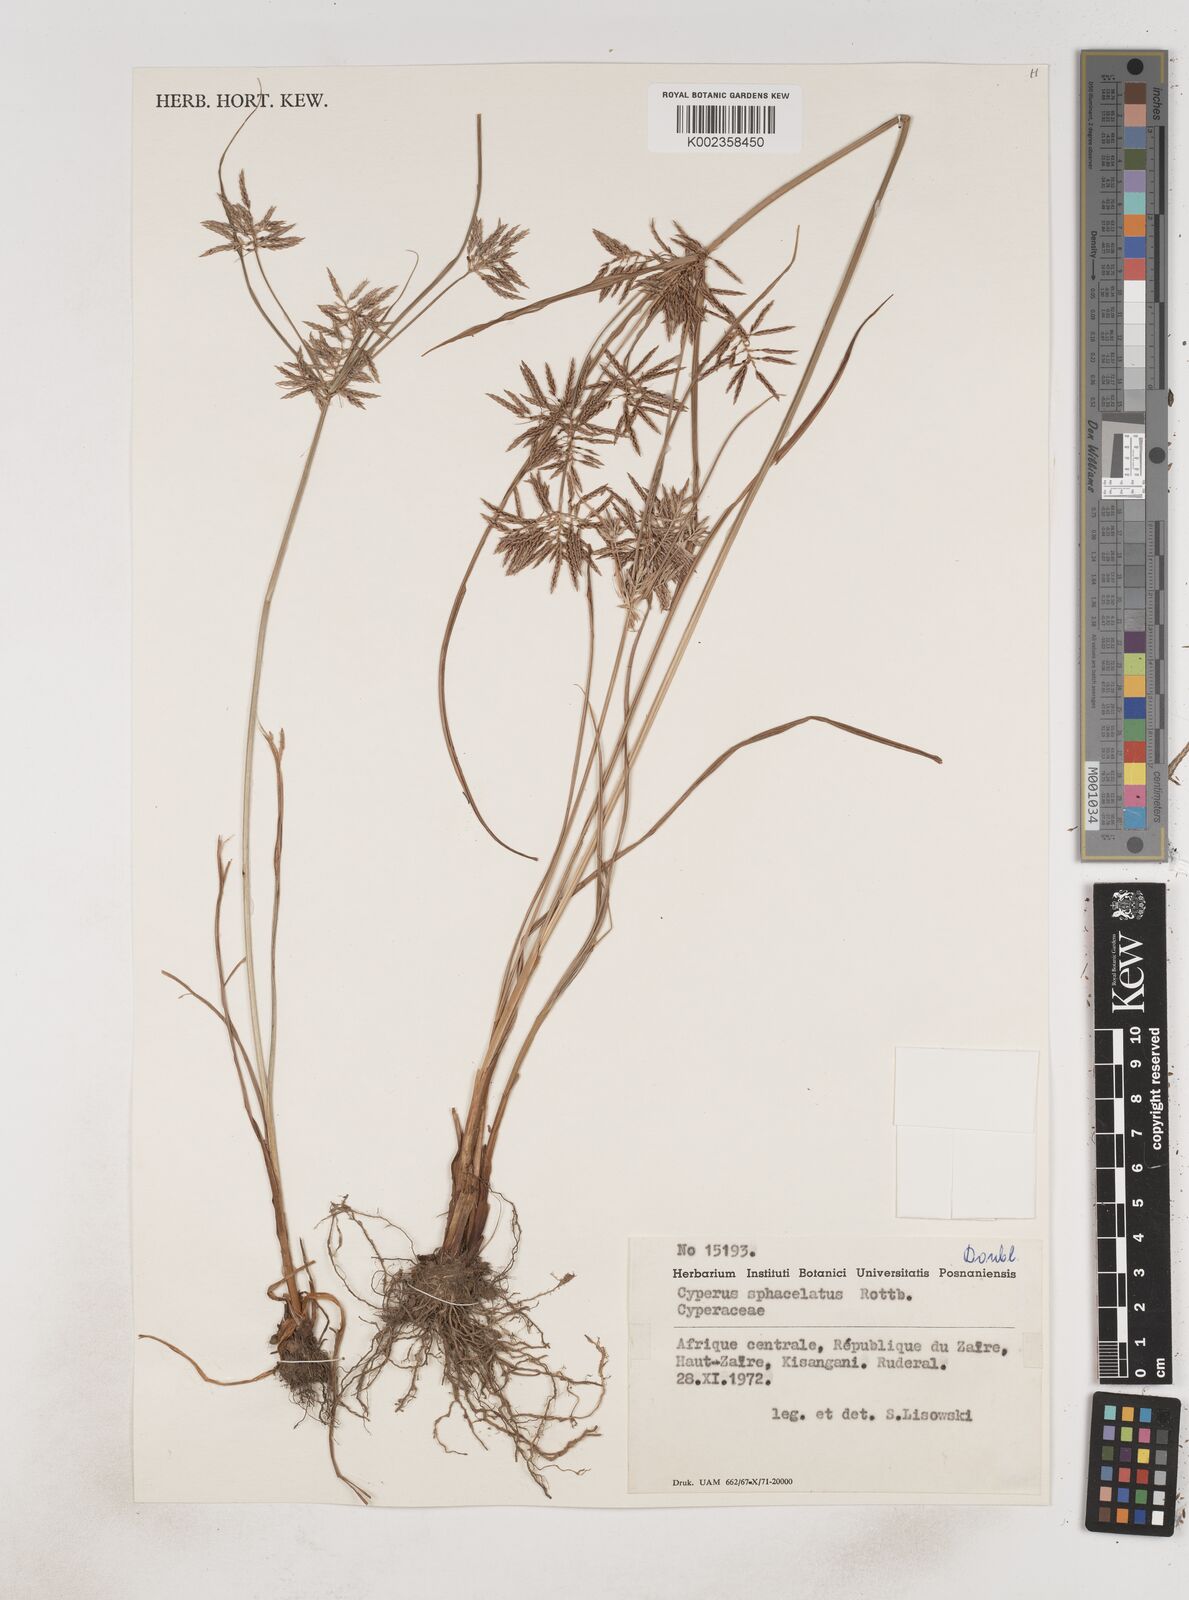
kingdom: Plantae
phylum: Tracheophyta
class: Liliopsida
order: Poales
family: Cyperaceae
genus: Cyperus
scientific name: Cyperus sphacelatus
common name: Roadside flatsedge
